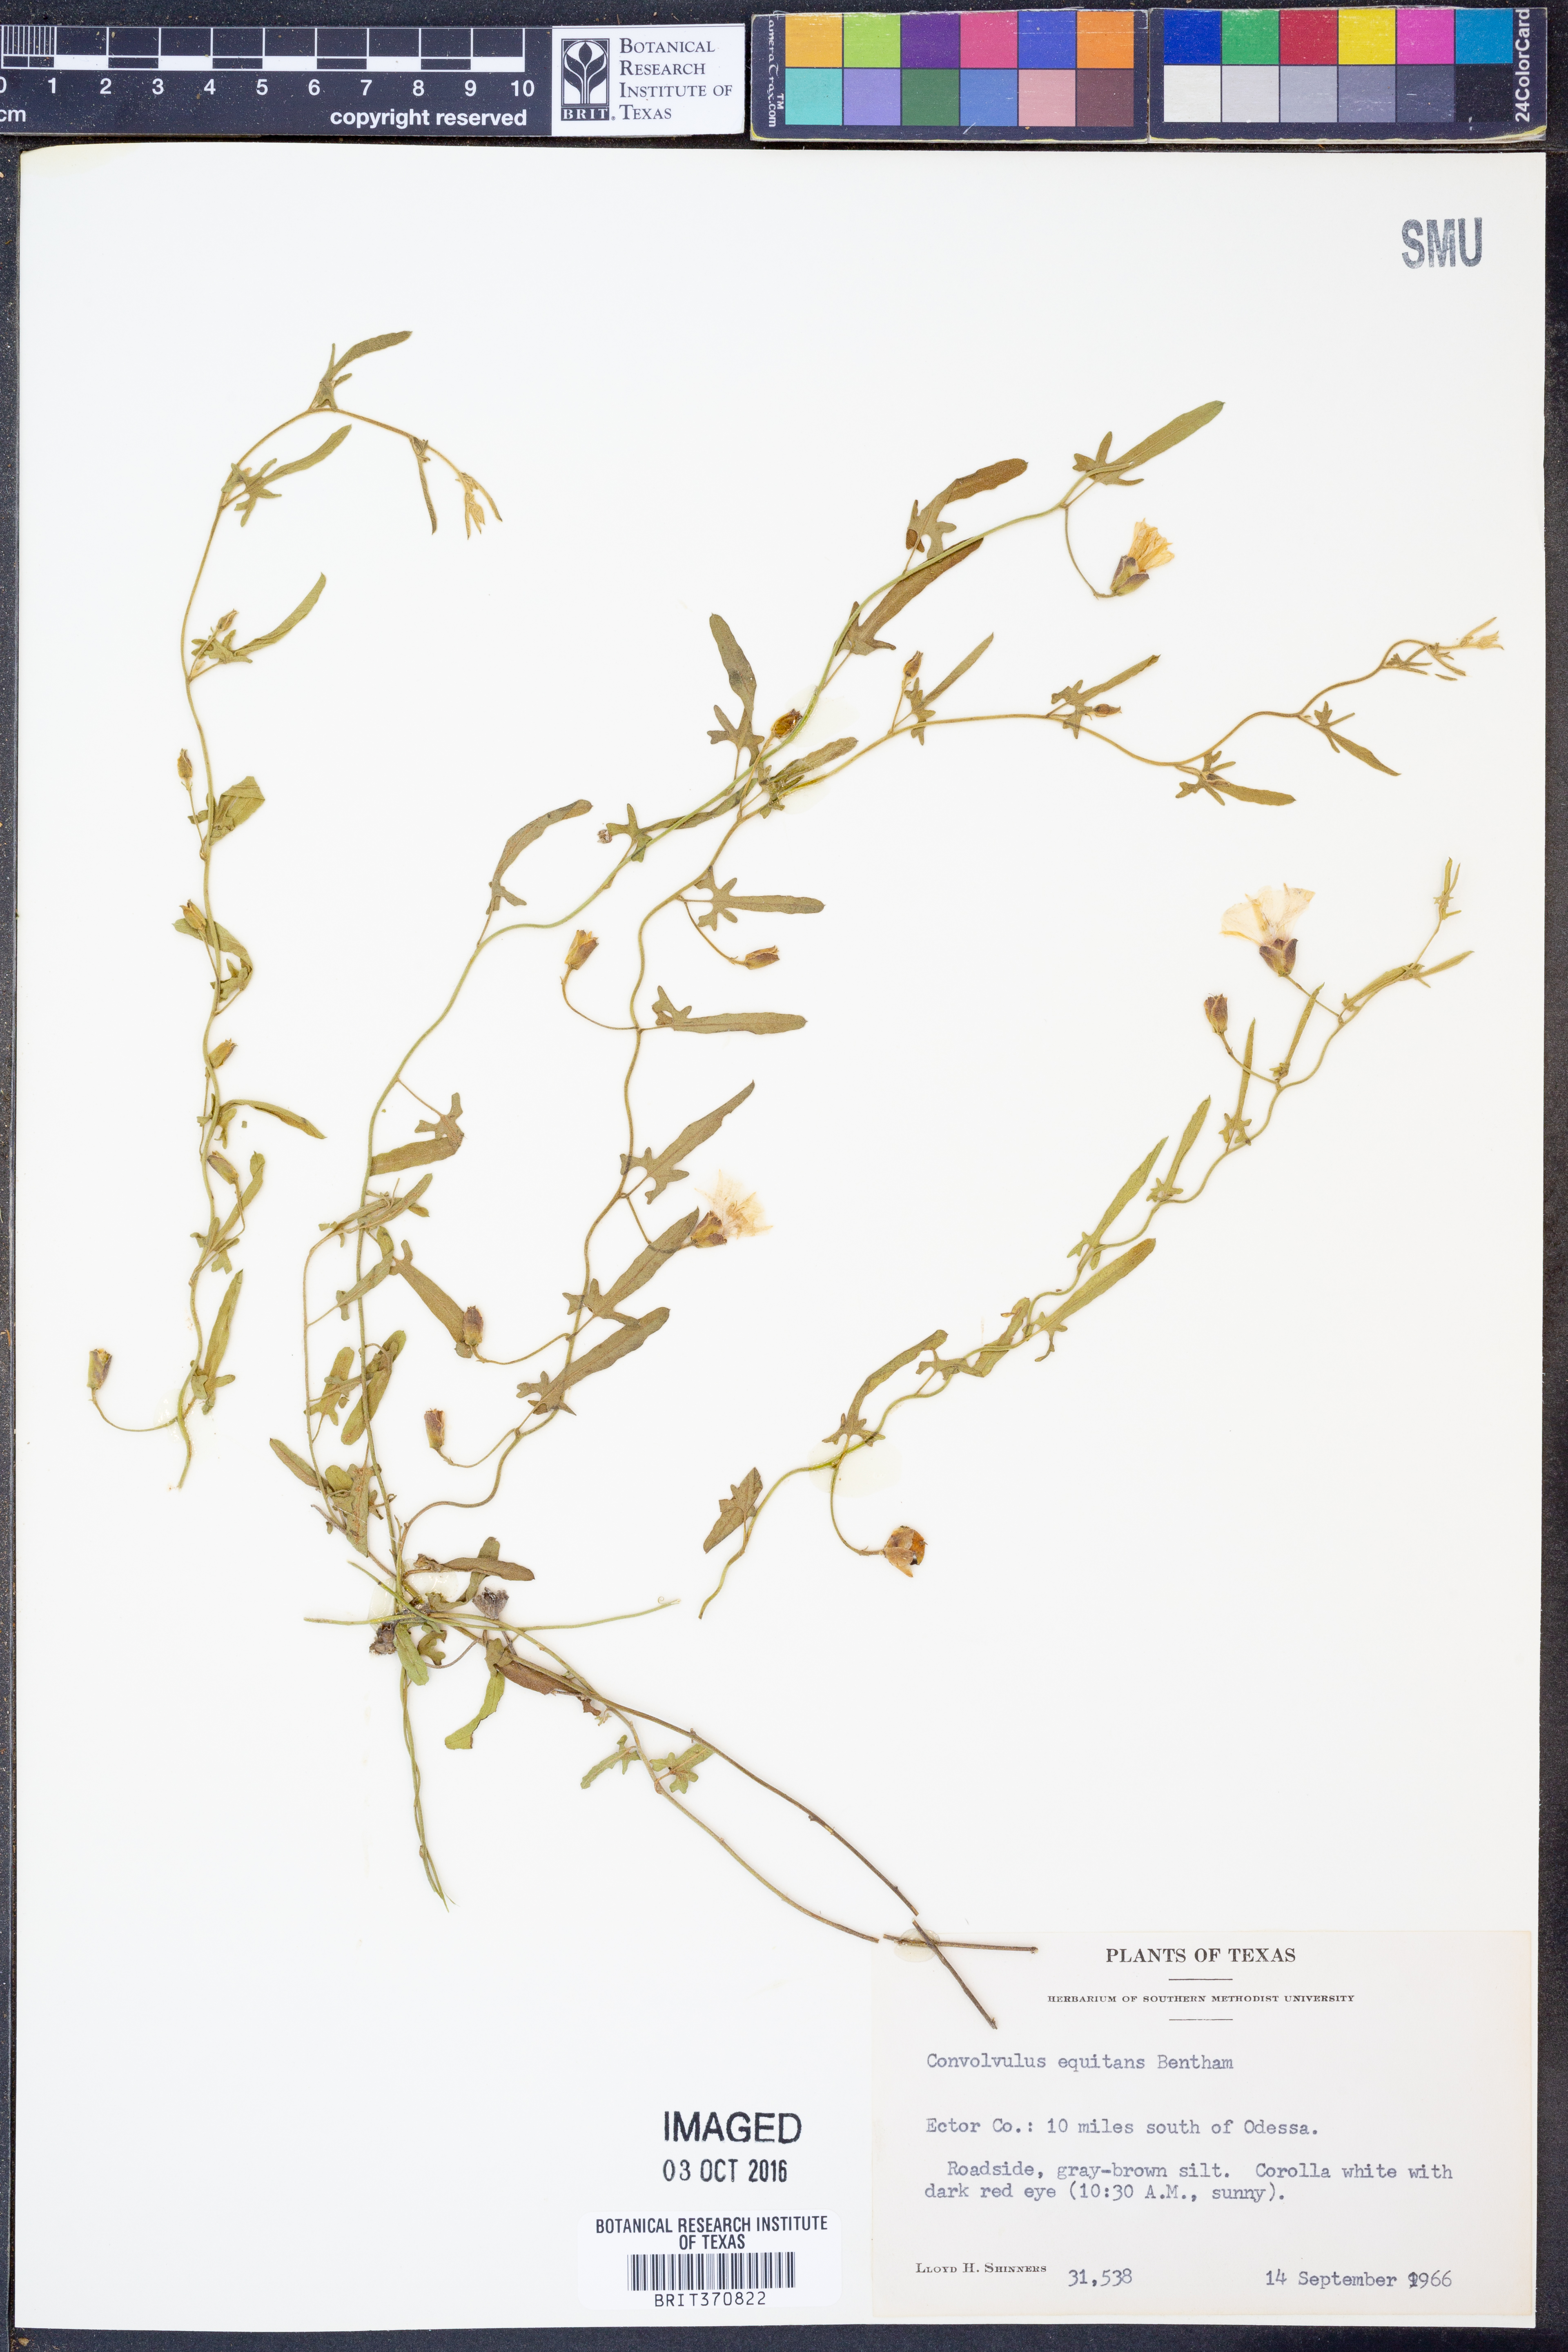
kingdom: Plantae
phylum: Tracheophyta
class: Magnoliopsida
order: Solanales
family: Convolvulaceae
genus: Convolvulus
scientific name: Convolvulus equitans
